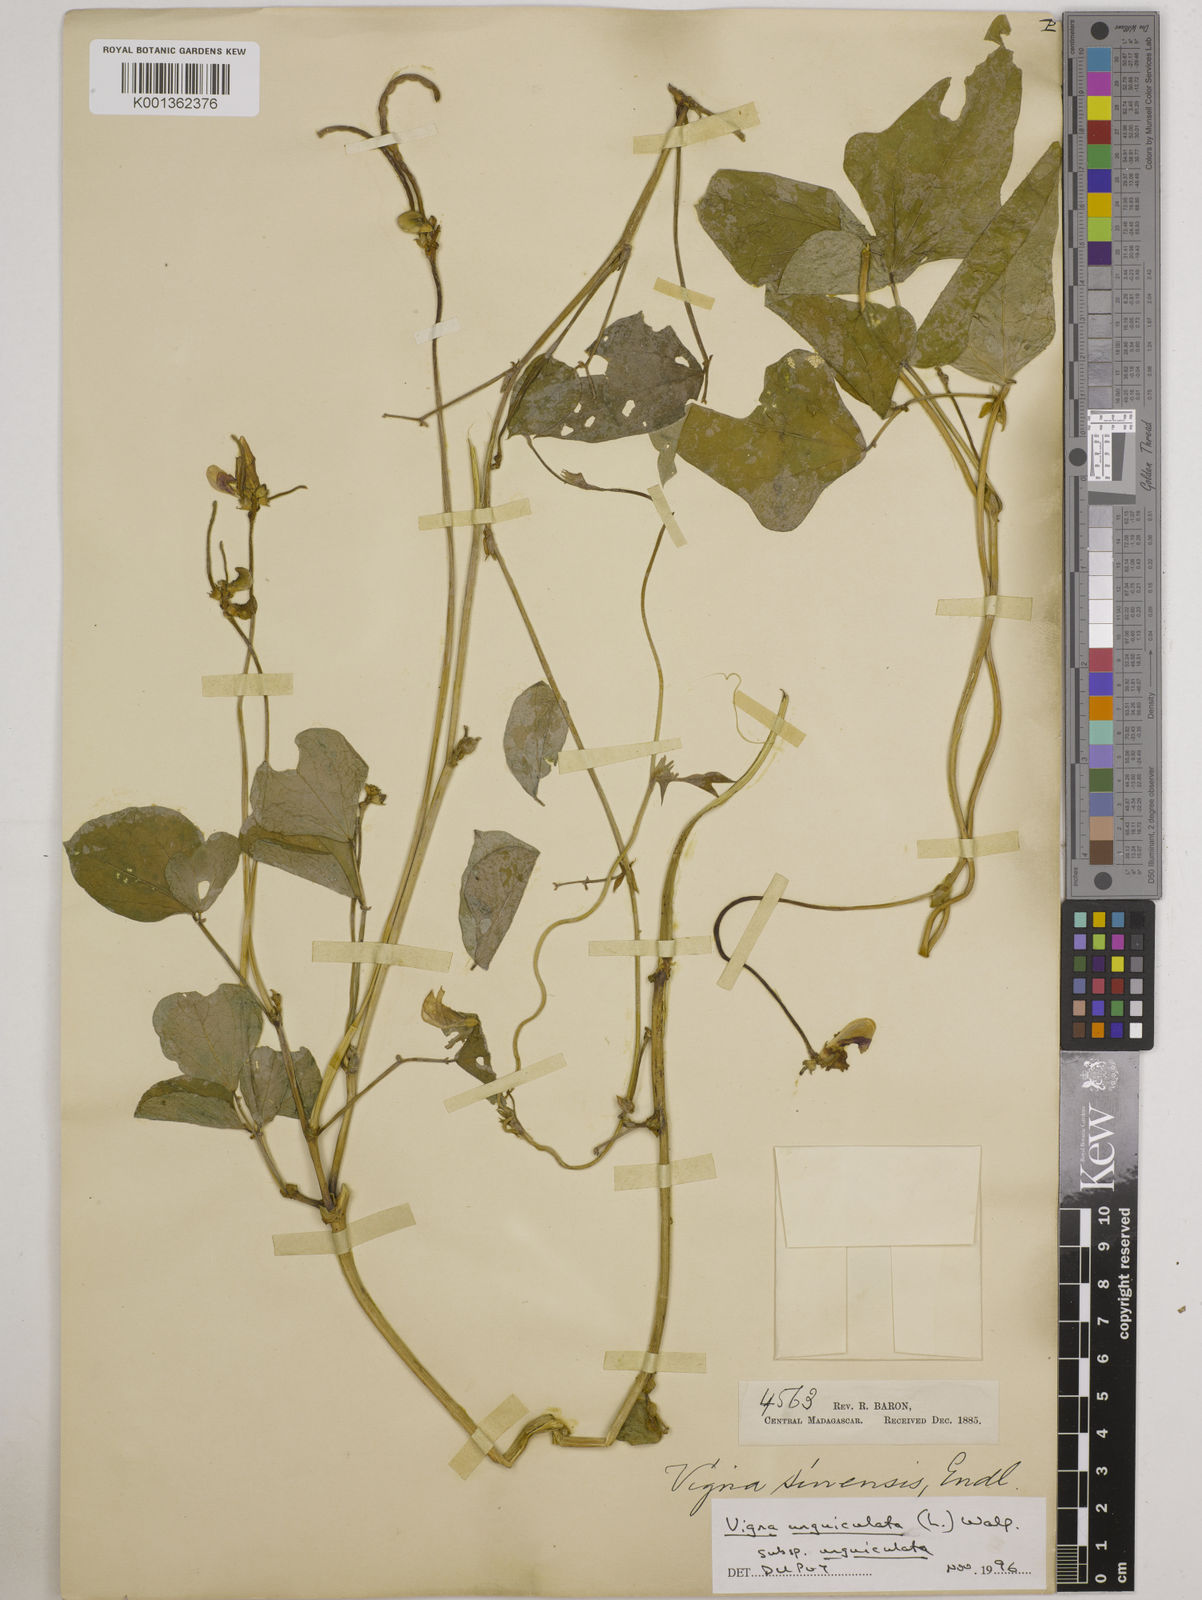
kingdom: Plantae
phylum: Tracheophyta
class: Magnoliopsida
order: Fabales
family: Fabaceae
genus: Vigna
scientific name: Vigna
